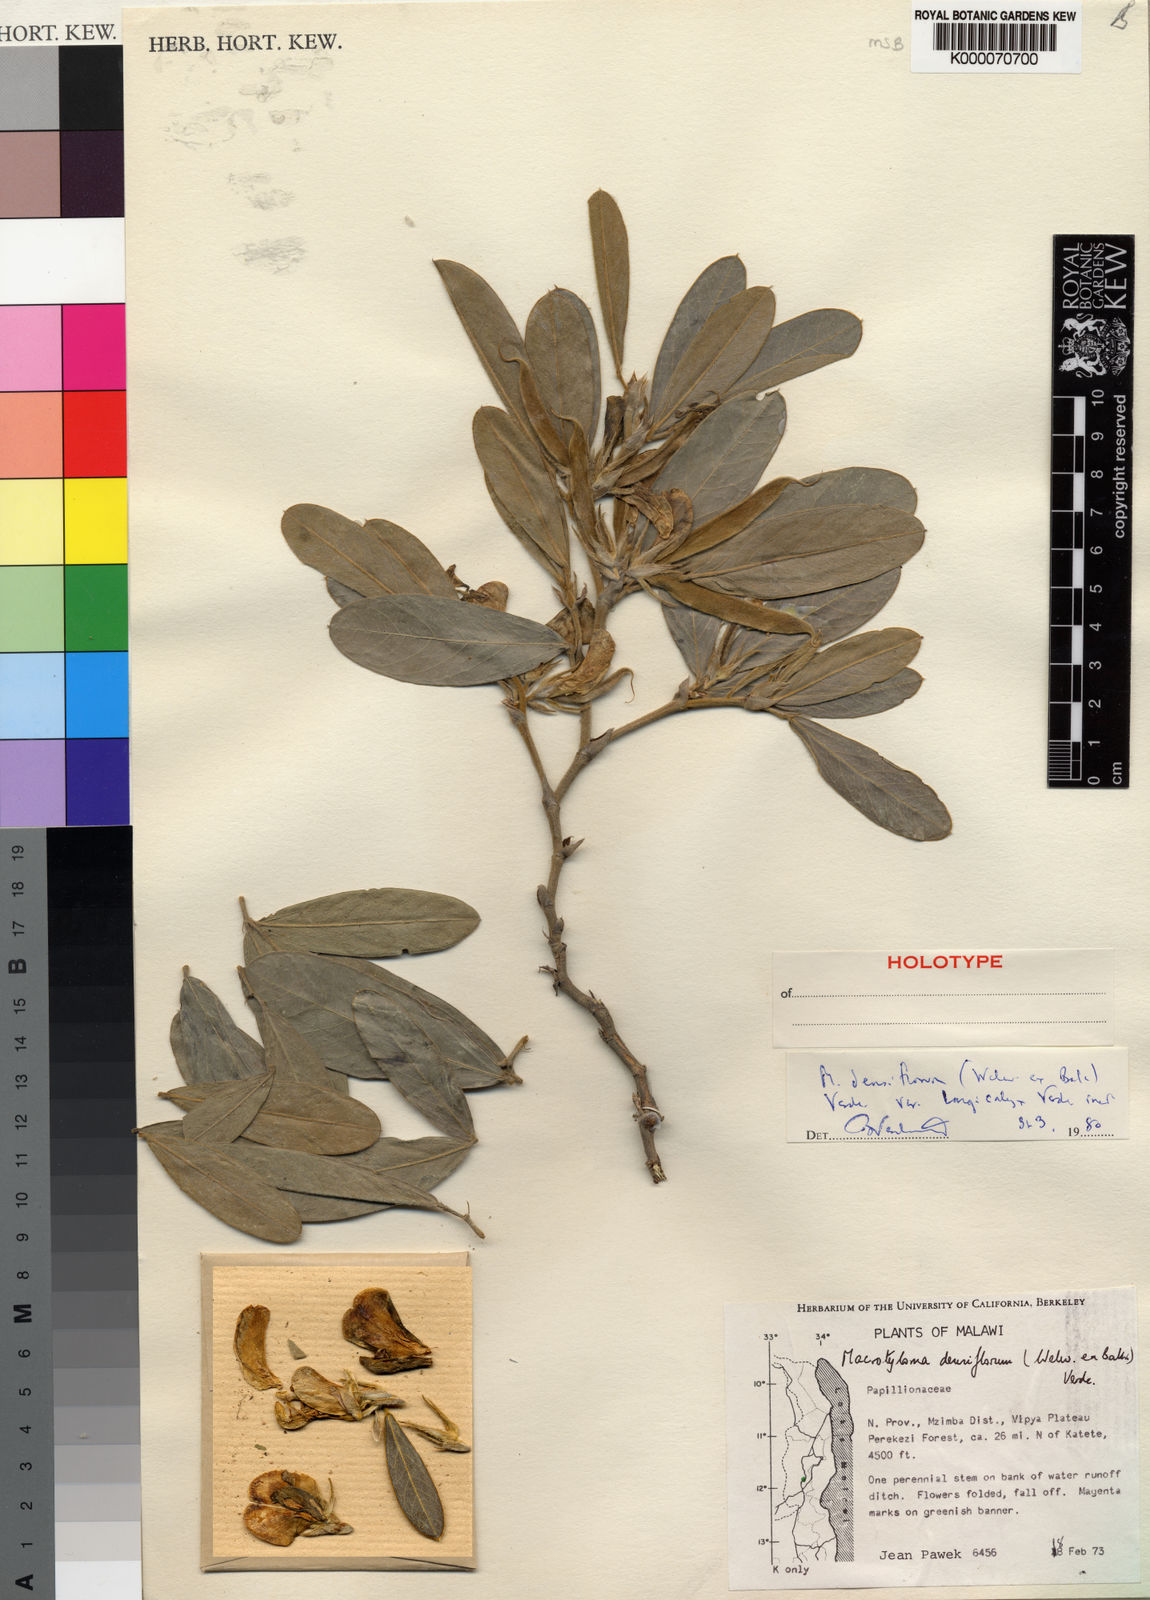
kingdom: Plantae
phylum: Tracheophyta
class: Magnoliopsida
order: Fabales
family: Fabaceae
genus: Macrotyloma
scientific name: Macrotyloma densiflorum
